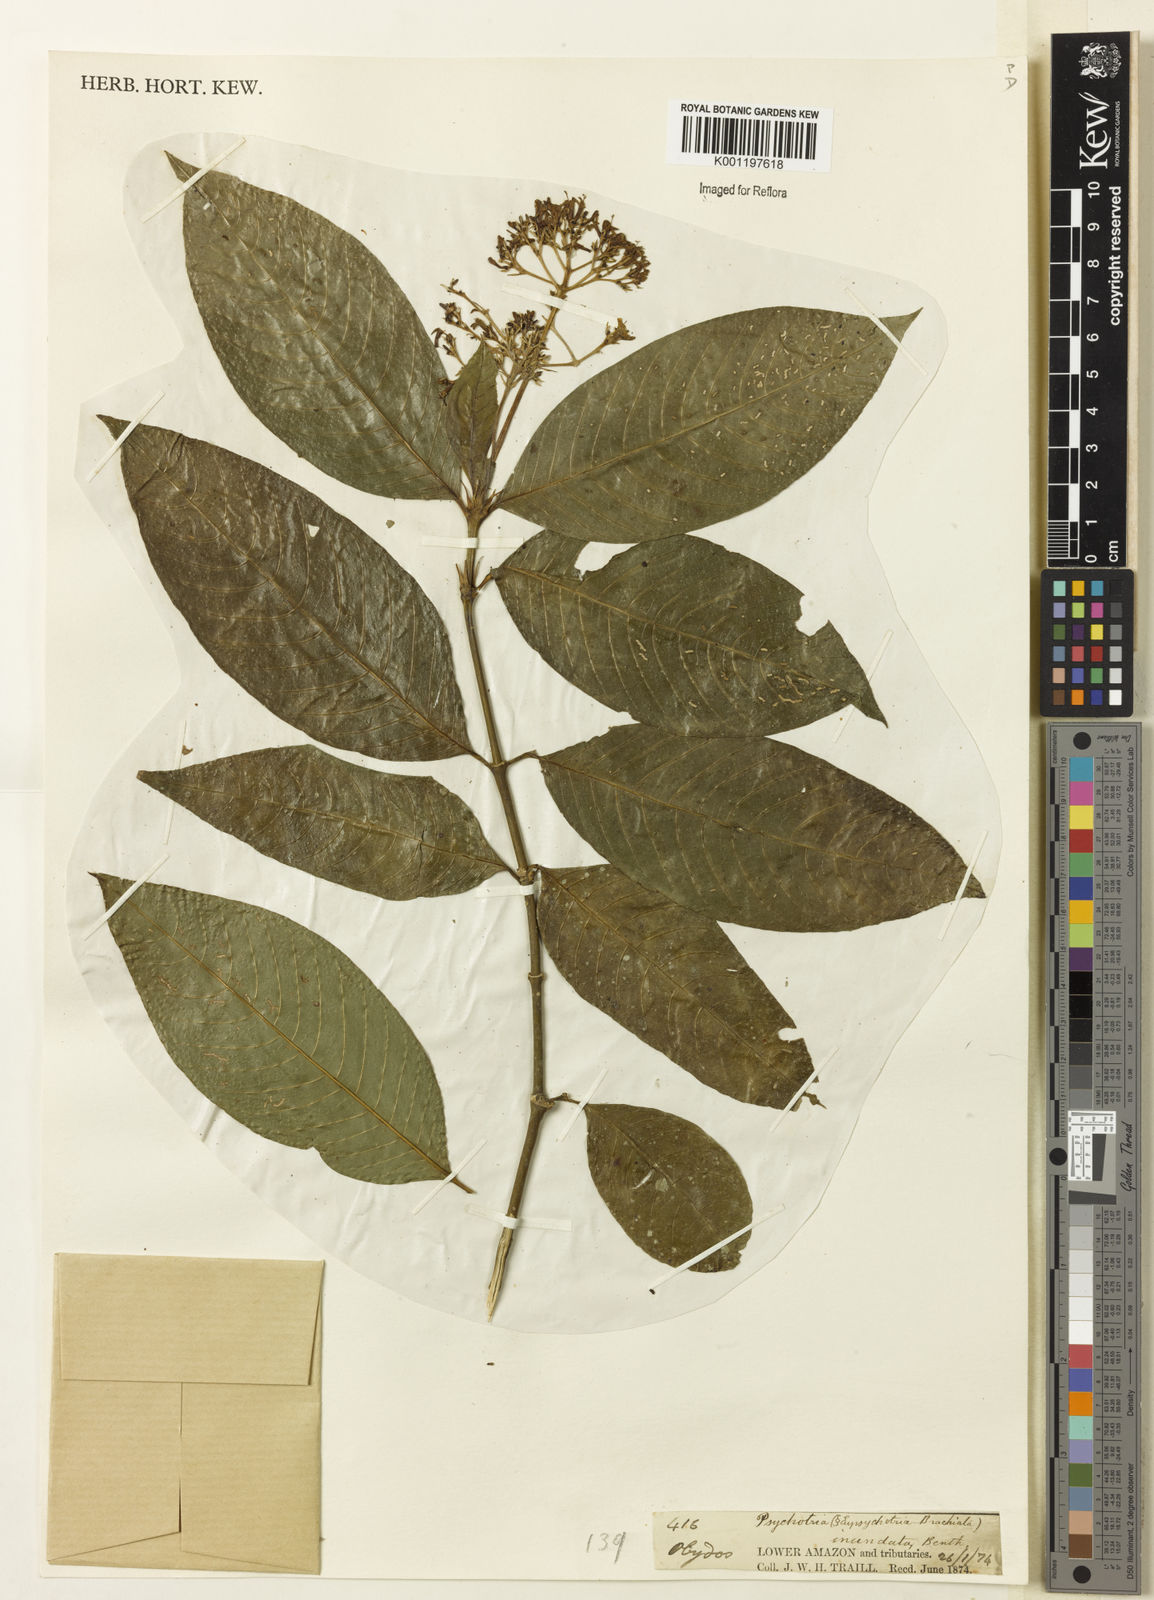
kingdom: Plantae
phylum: Tracheophyta
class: Magnoliopsida
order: Gentianales
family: Rubiaceae
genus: Palicourea
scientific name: Palicourea violacea
